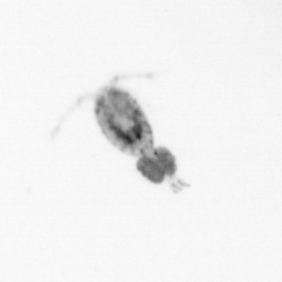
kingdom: Animalia
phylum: Arthropoda
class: Copepoda
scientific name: Copepoda
